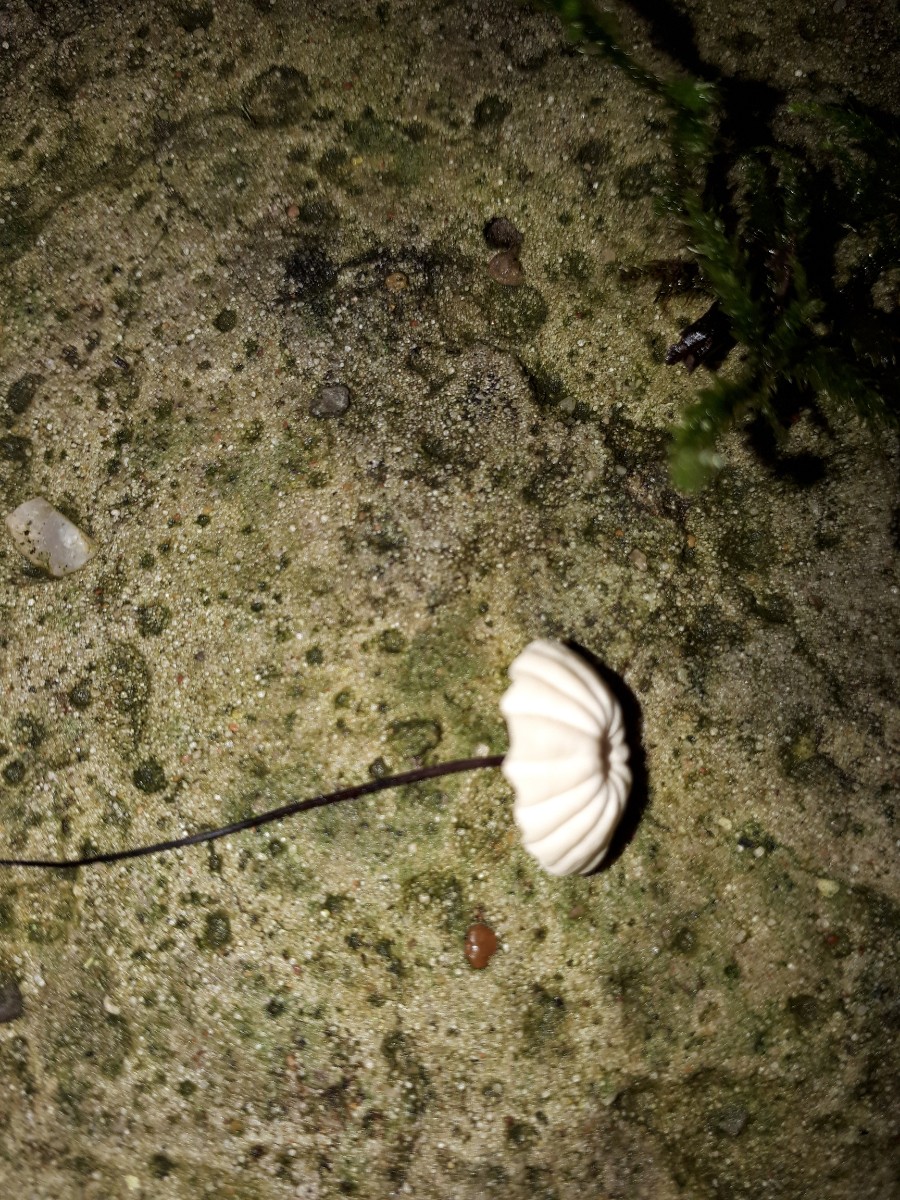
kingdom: Fungi
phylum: Basidiomycota
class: Agaricomycetes
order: Agaricales
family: Marasmiaceae
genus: Marasmius
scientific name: Marasmius rotula
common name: hjul-bruskhat
